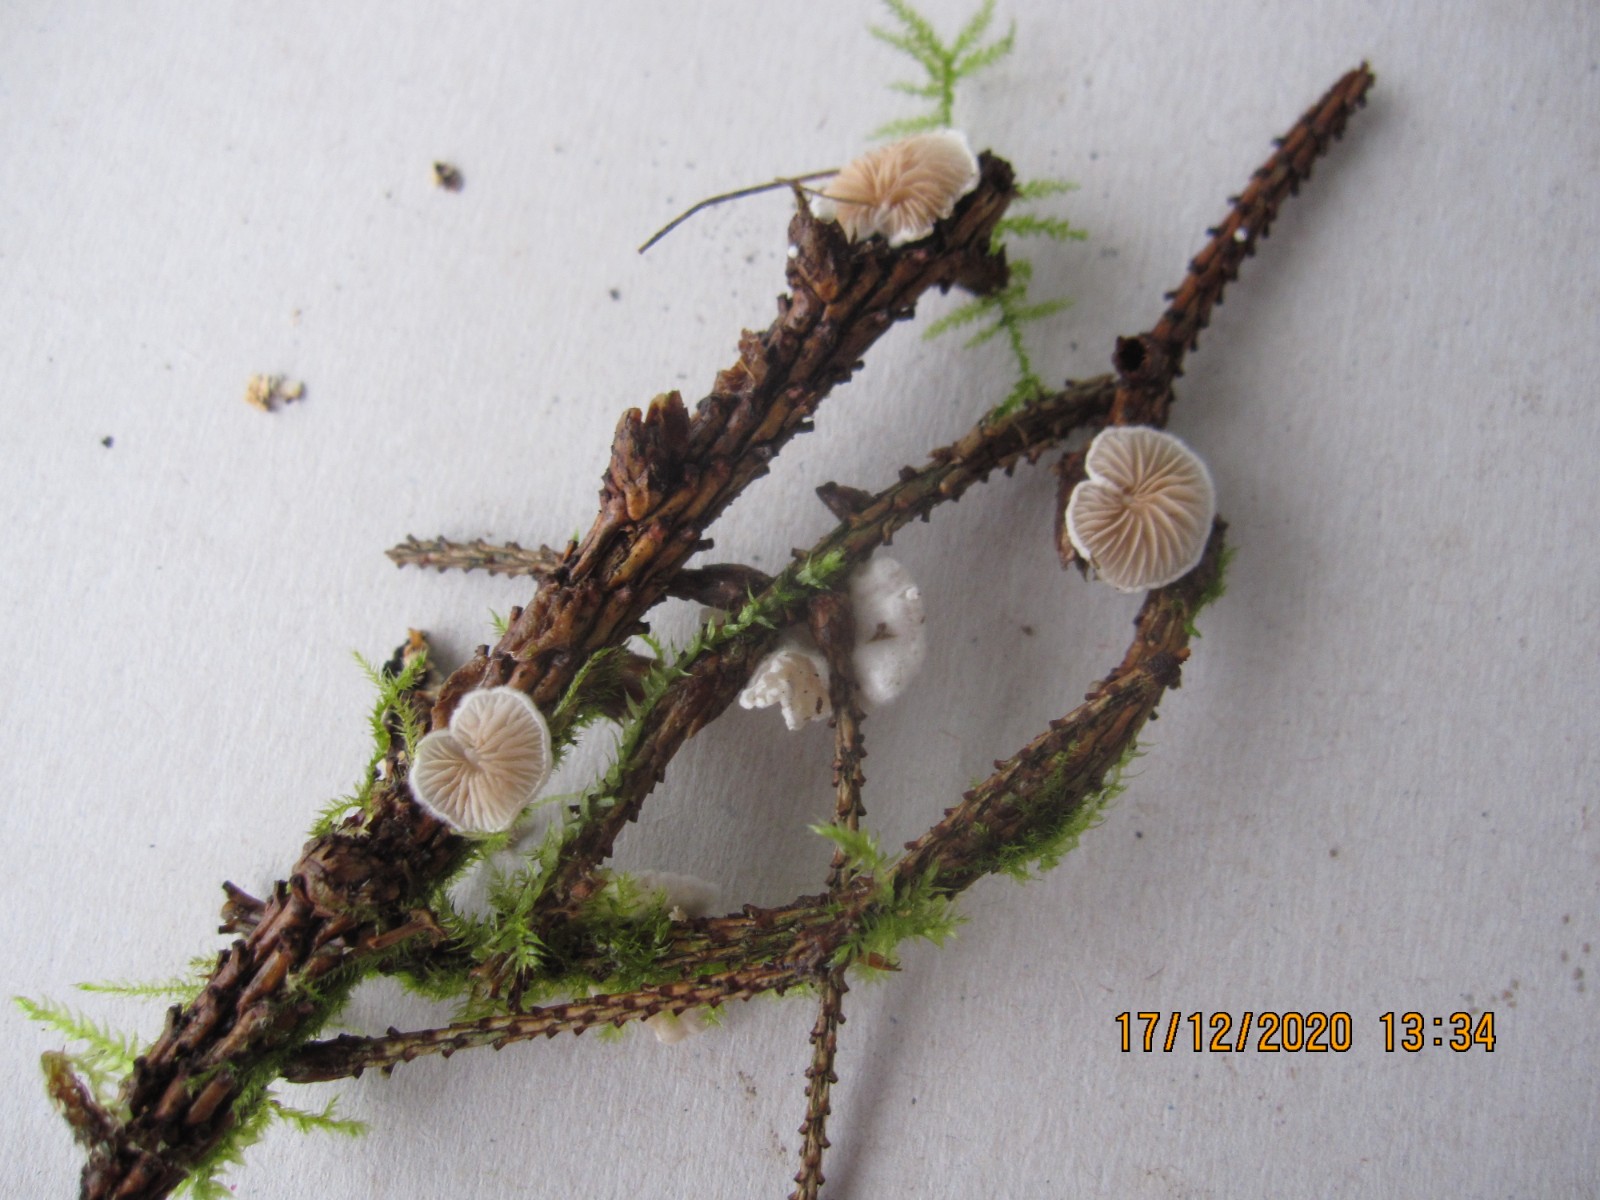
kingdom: Fungi
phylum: Basidiomycota
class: Agaricomycetes
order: Agaricales
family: Crepidotaceae
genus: Crepidotus
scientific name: Crepidotus variabilis
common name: forskelligformet muslingesvamp
